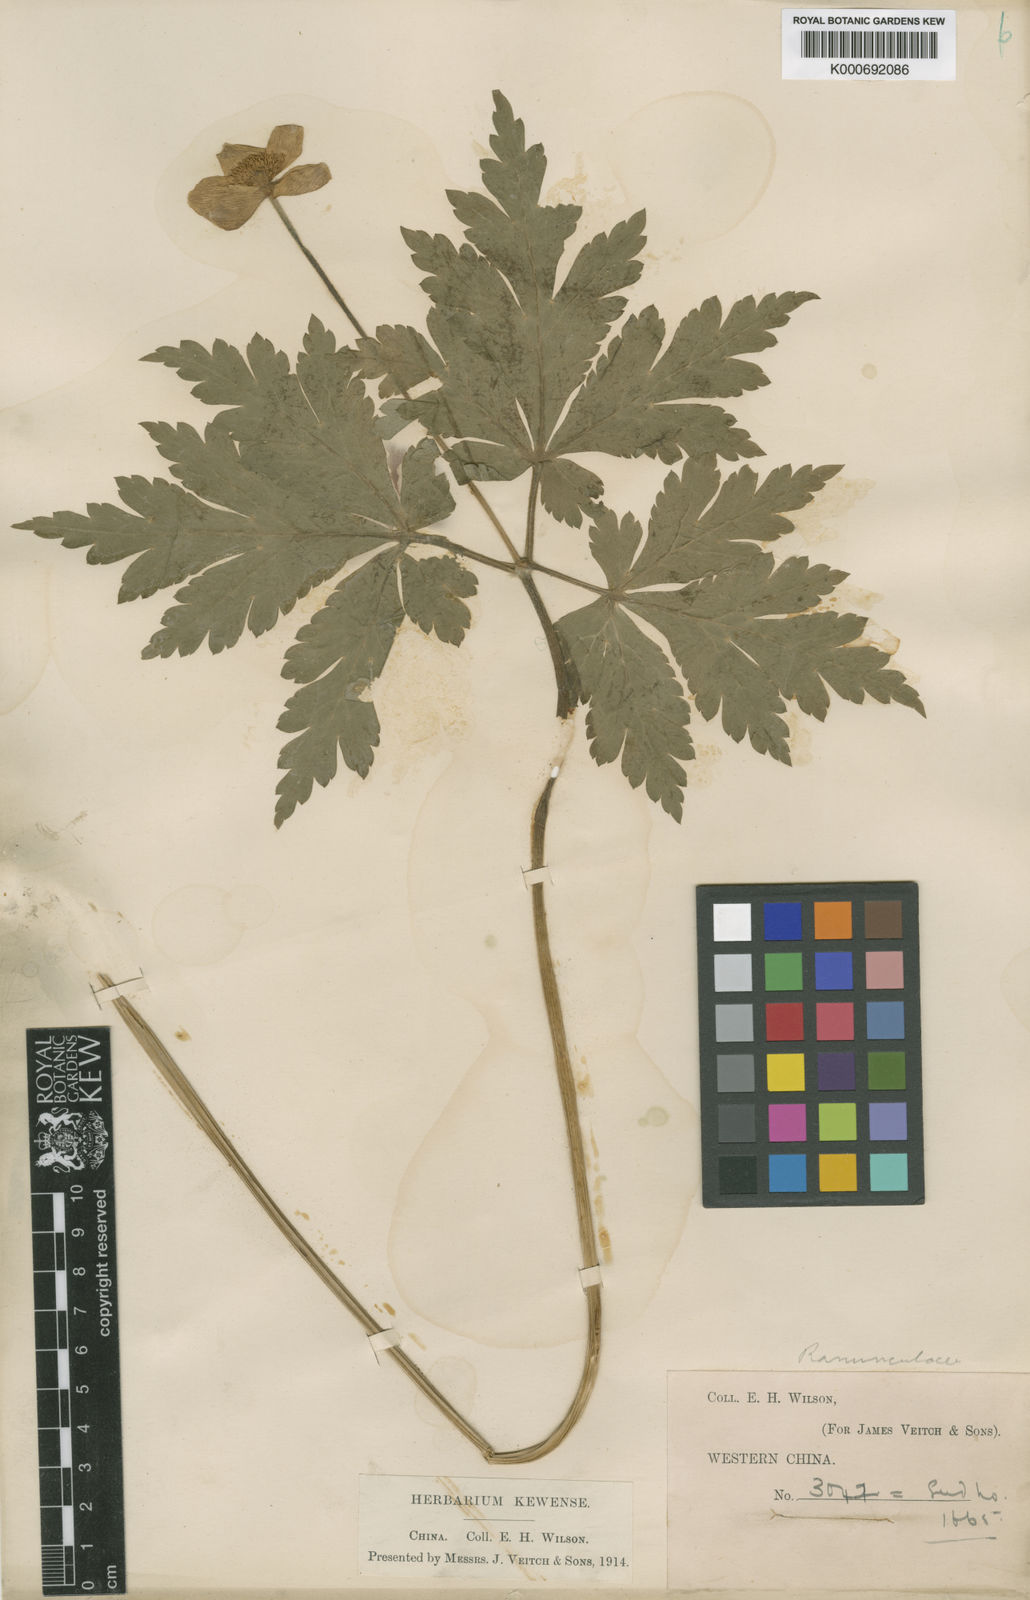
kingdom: Plantae
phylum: Tracheophyta
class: Magnoliopsida
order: Ranunculales
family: Ranunculaceae
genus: Anemone
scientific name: Anemone
